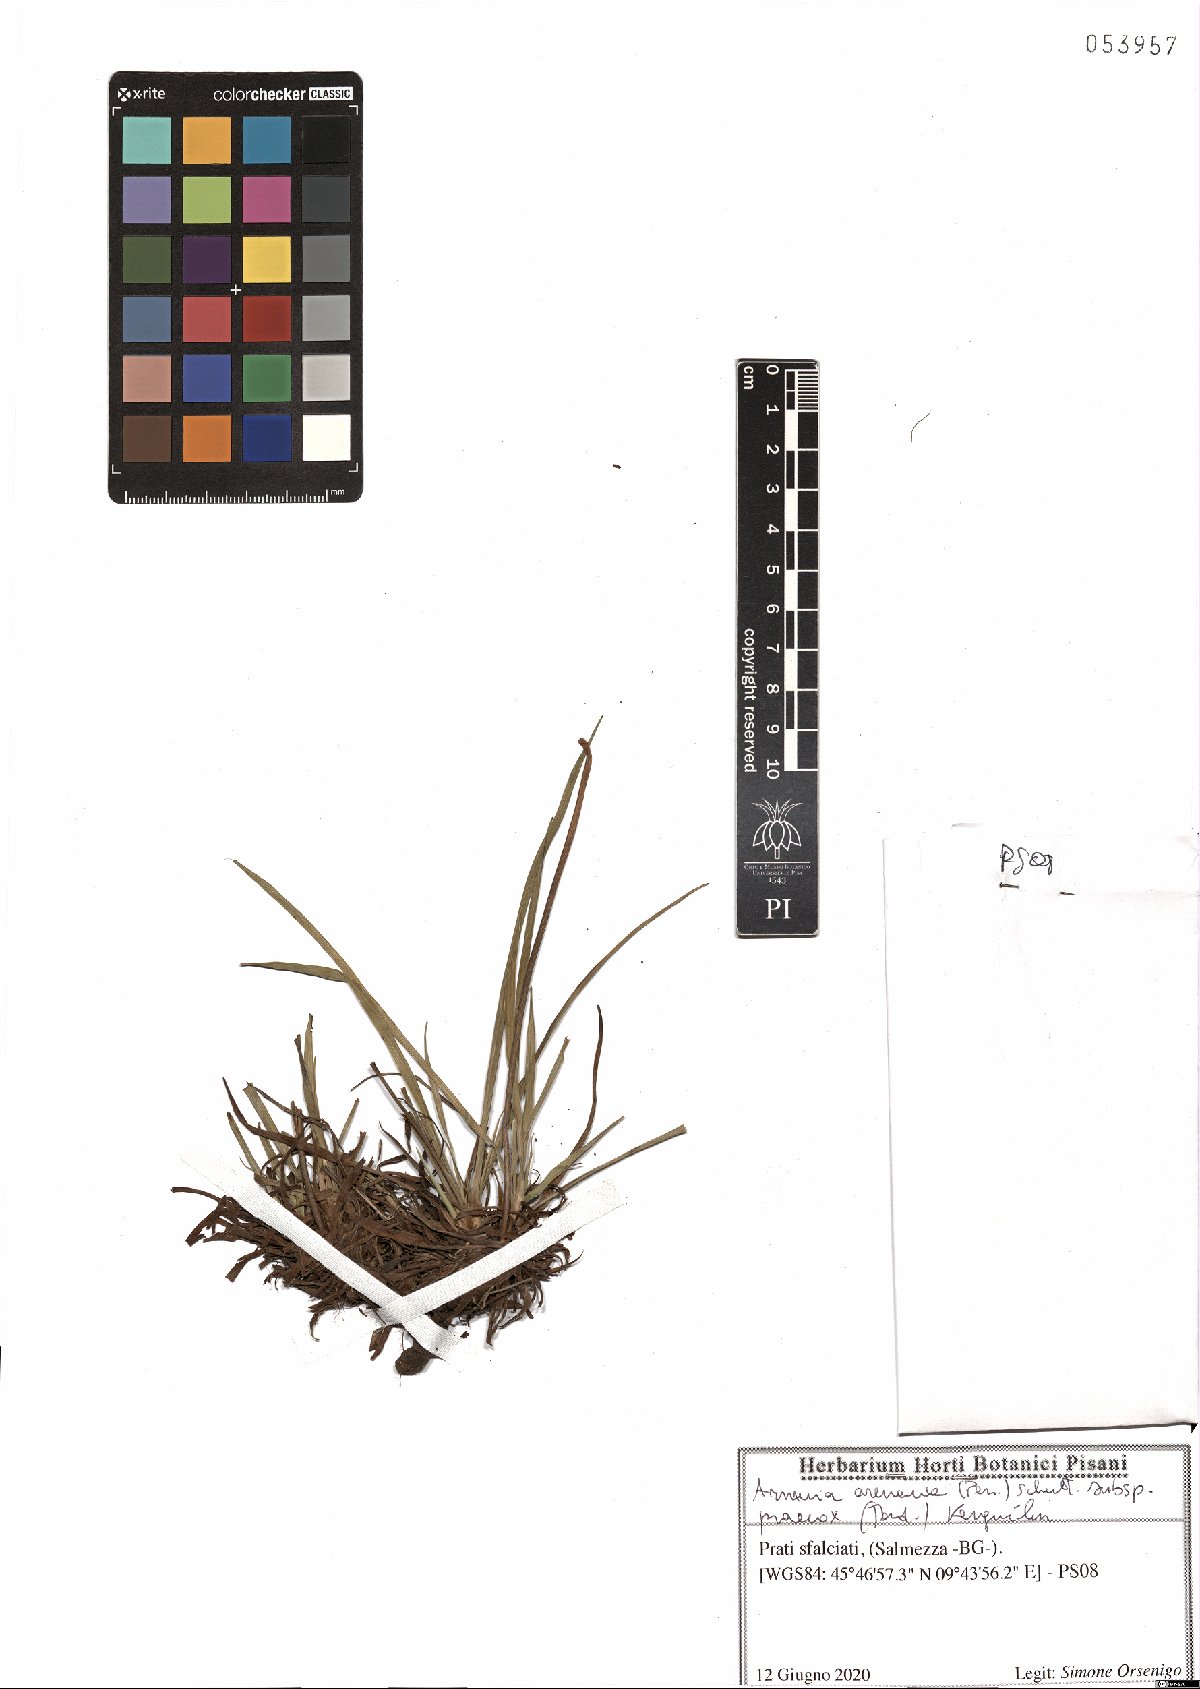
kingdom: Plantae
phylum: Tracheophyta
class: Magnoliopsida
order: Caryophyllales
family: Plumbaginaceae
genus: Armeria
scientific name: Armeria arenaria
